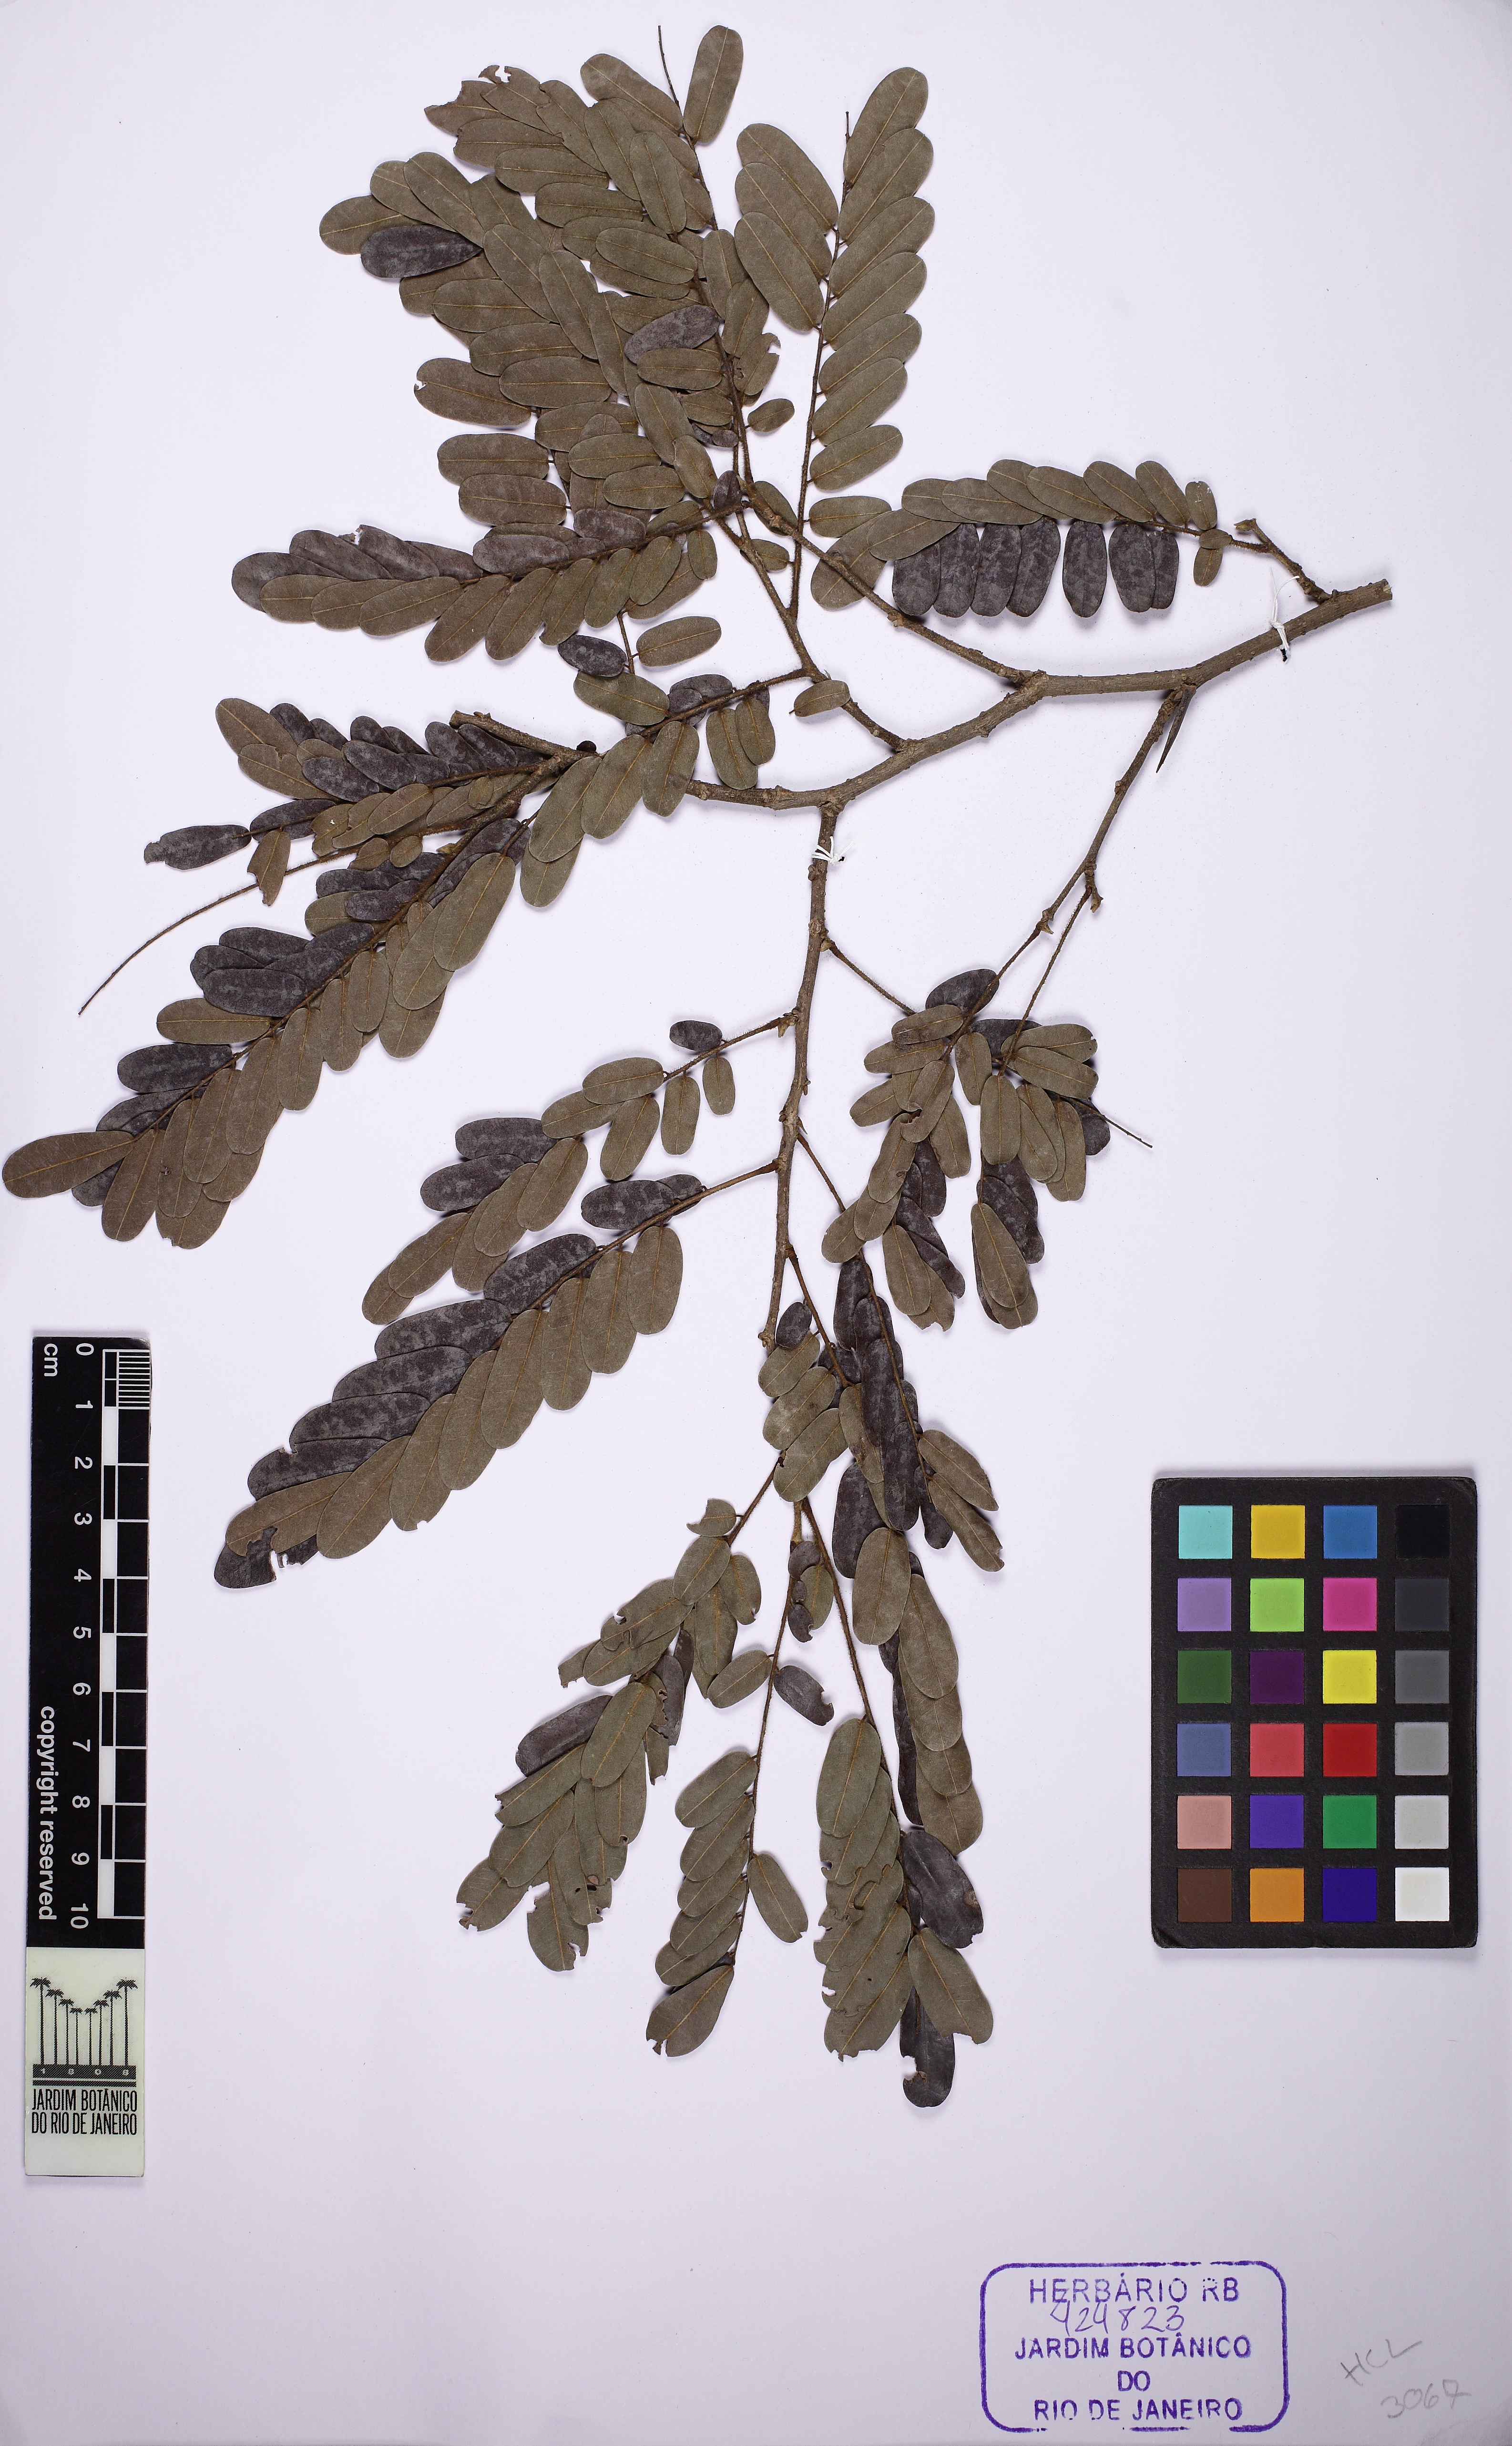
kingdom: Plantae
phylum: Tracheophyta
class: Magnoliopsida
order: Fabales
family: Fabaceae
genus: Machaerium
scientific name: Machaerium nyctitans
